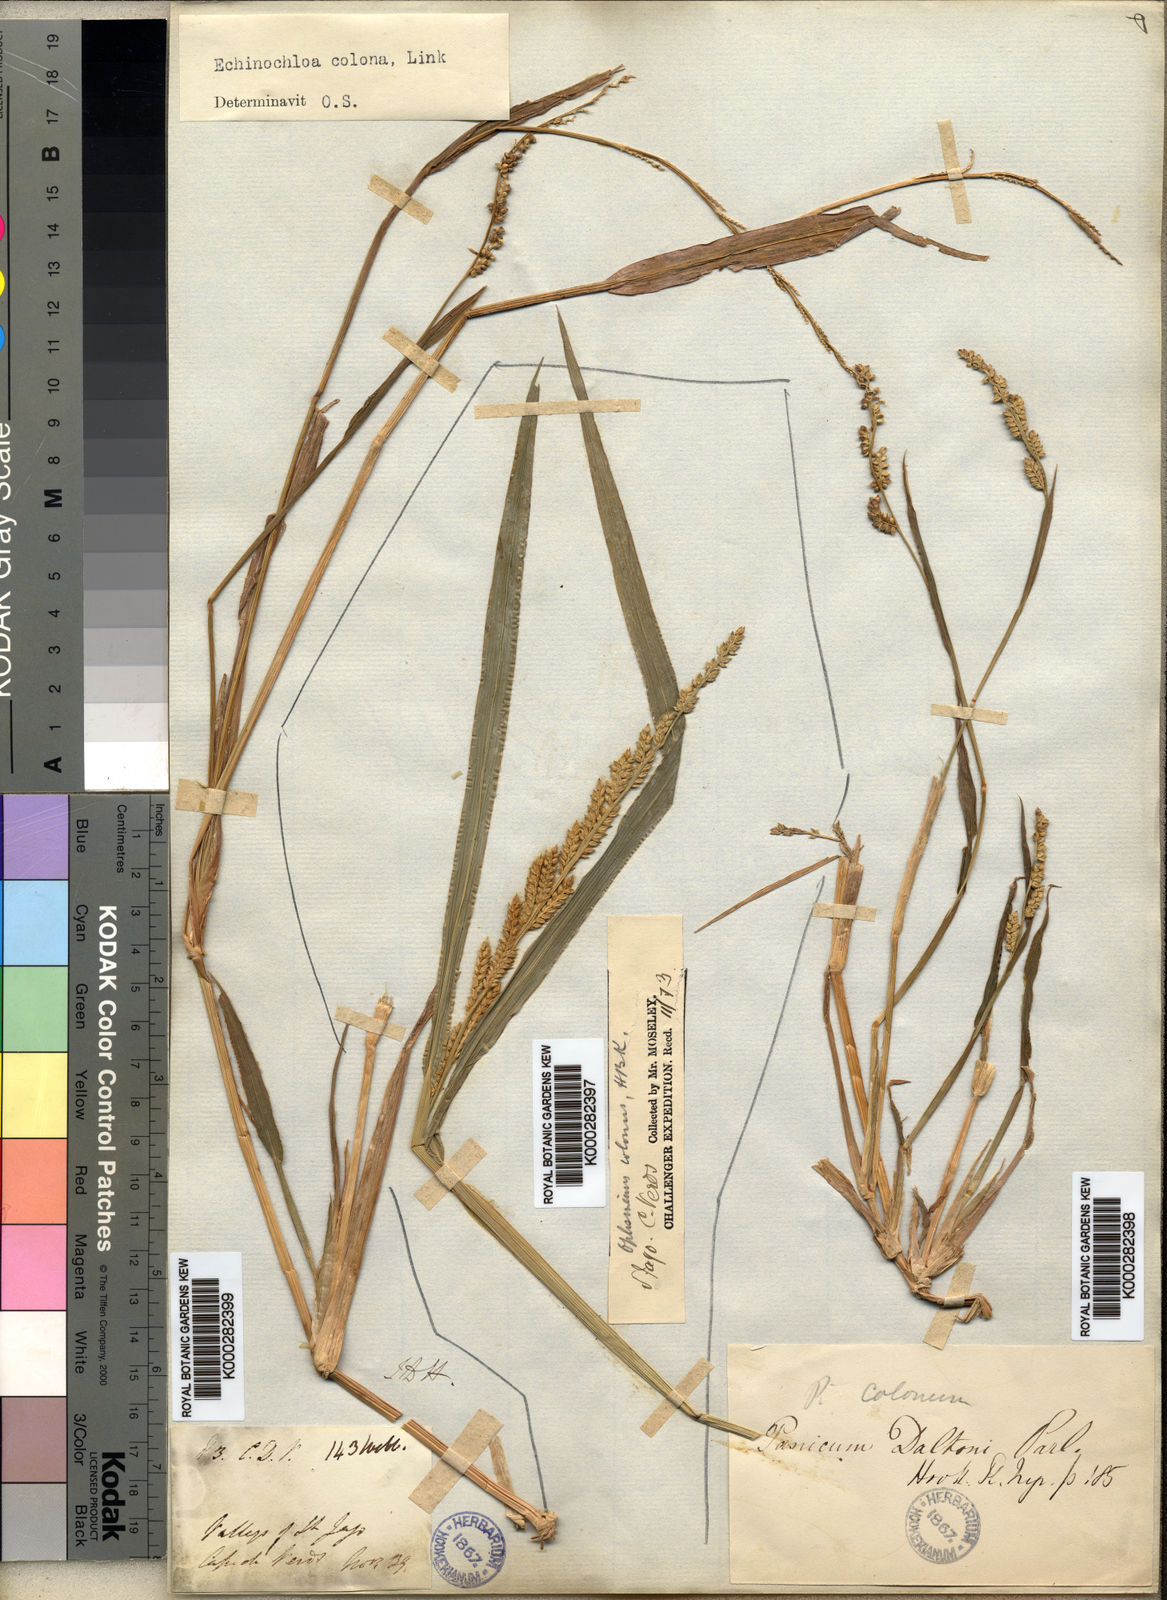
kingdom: Plantae
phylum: Tracheophyta
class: Liliopsida
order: Poales
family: Poaceae
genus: Echinochloa
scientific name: Echinochloa colonum
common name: Jungle rice
